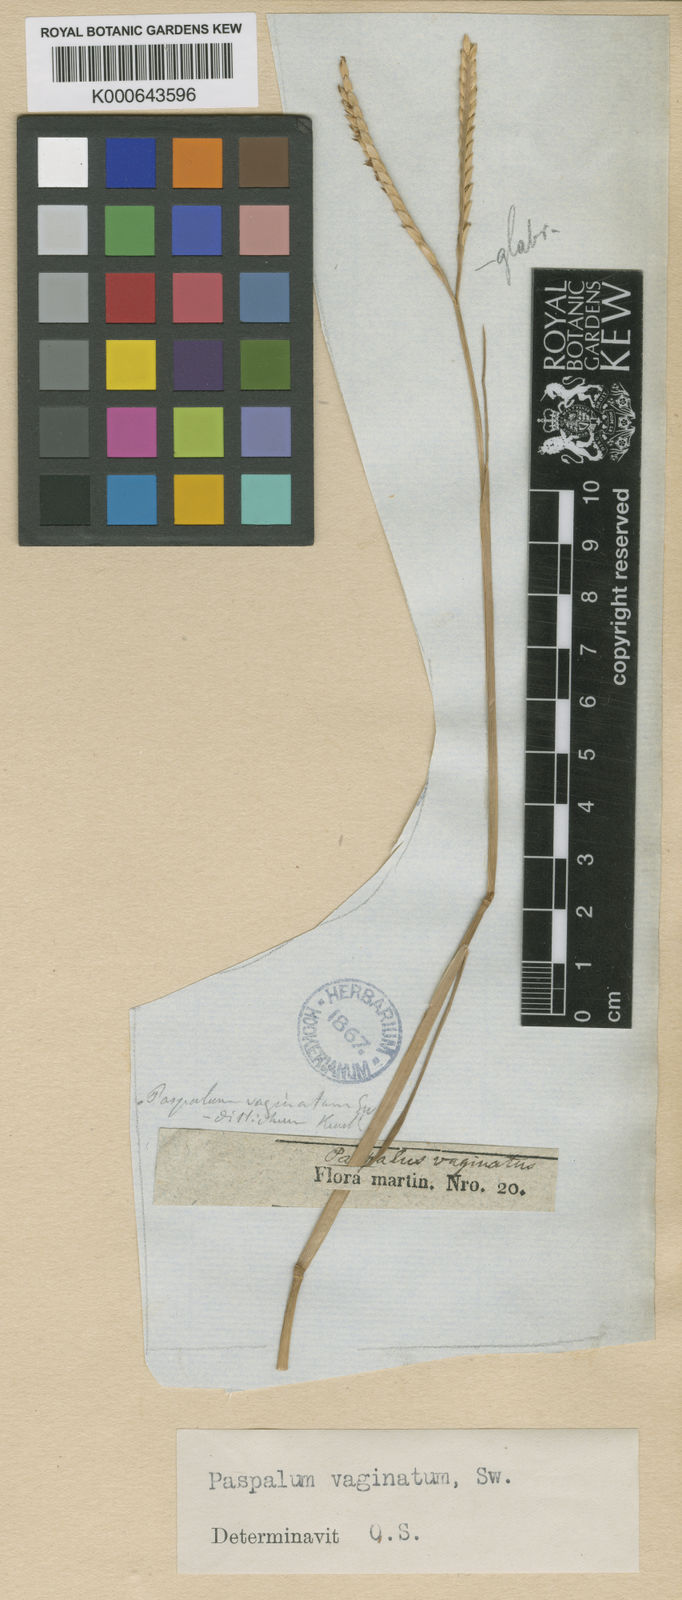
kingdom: Plantae
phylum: Tracheophyta
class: Liliopsida
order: Poales
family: Poaceae
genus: Paspalum
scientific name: Paspalum vaginatum
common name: Seashore paspalum
